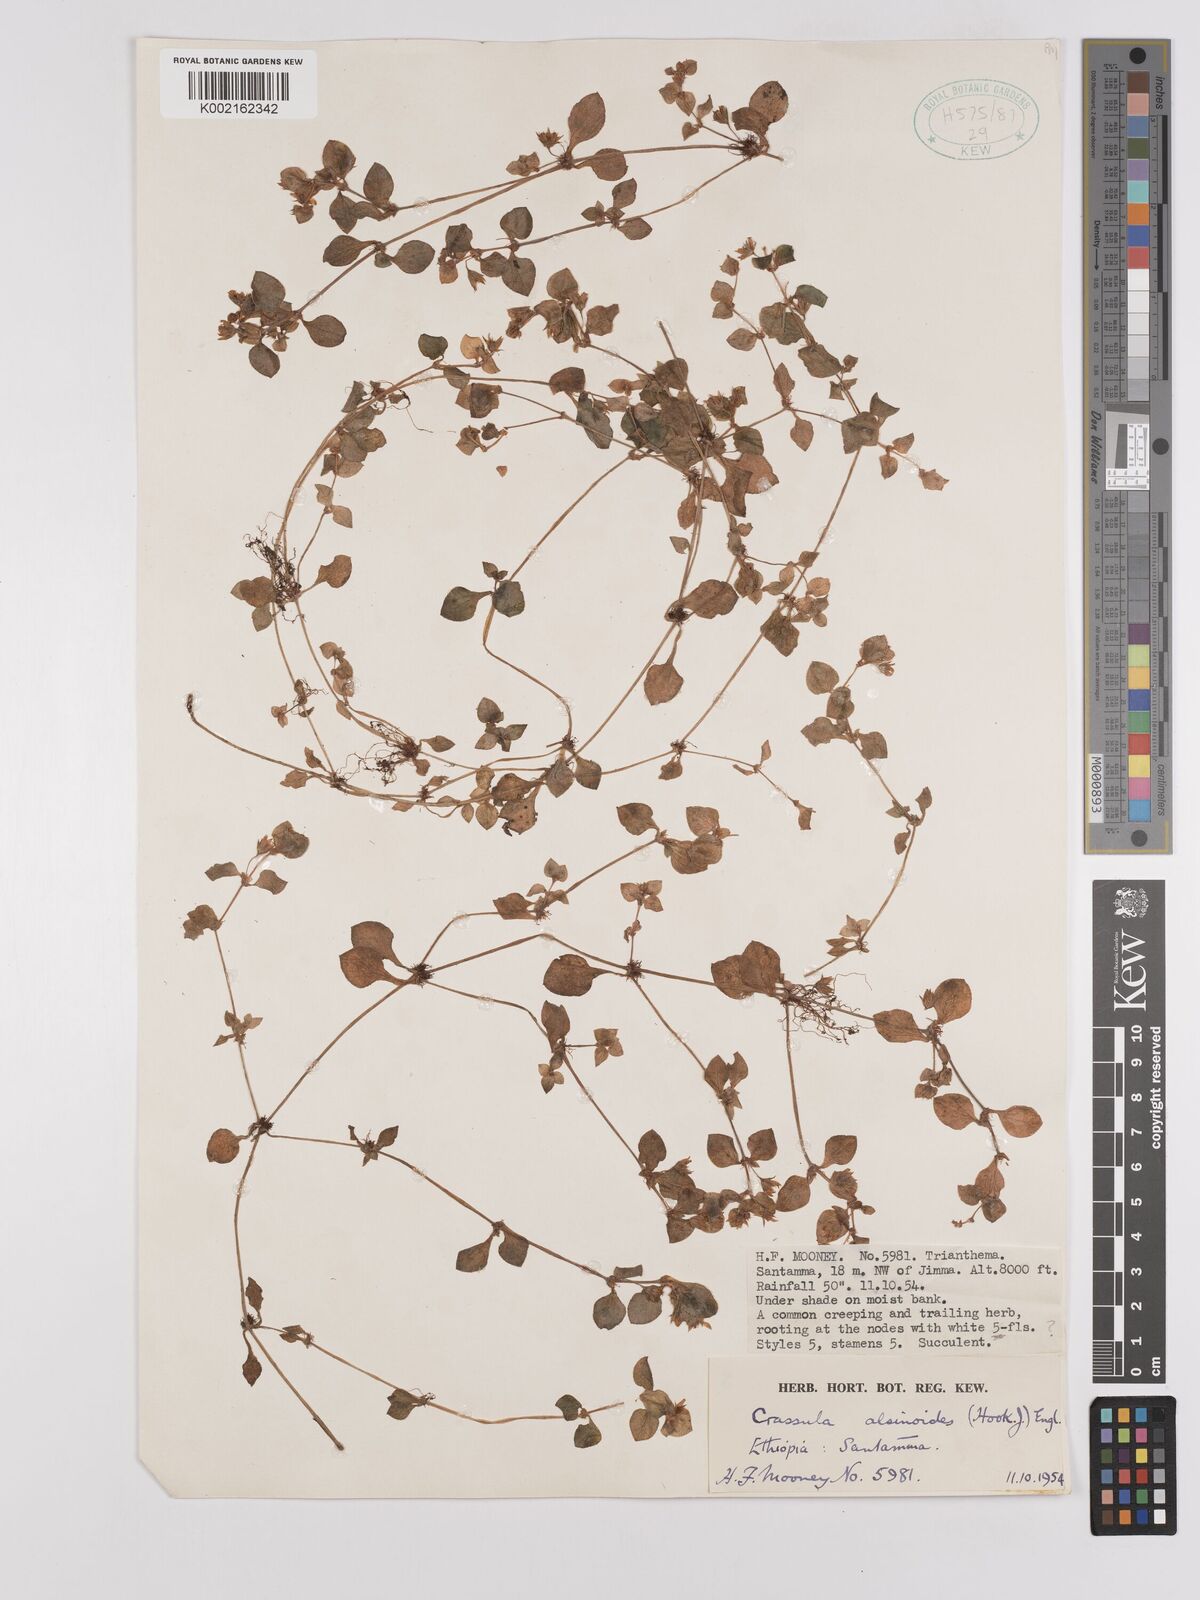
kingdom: Plantae
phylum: Tracheophyta
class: Magnoliopsida
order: Saxifragales
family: Crassulaceae
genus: Crassula
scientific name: Crassula alsinoides
